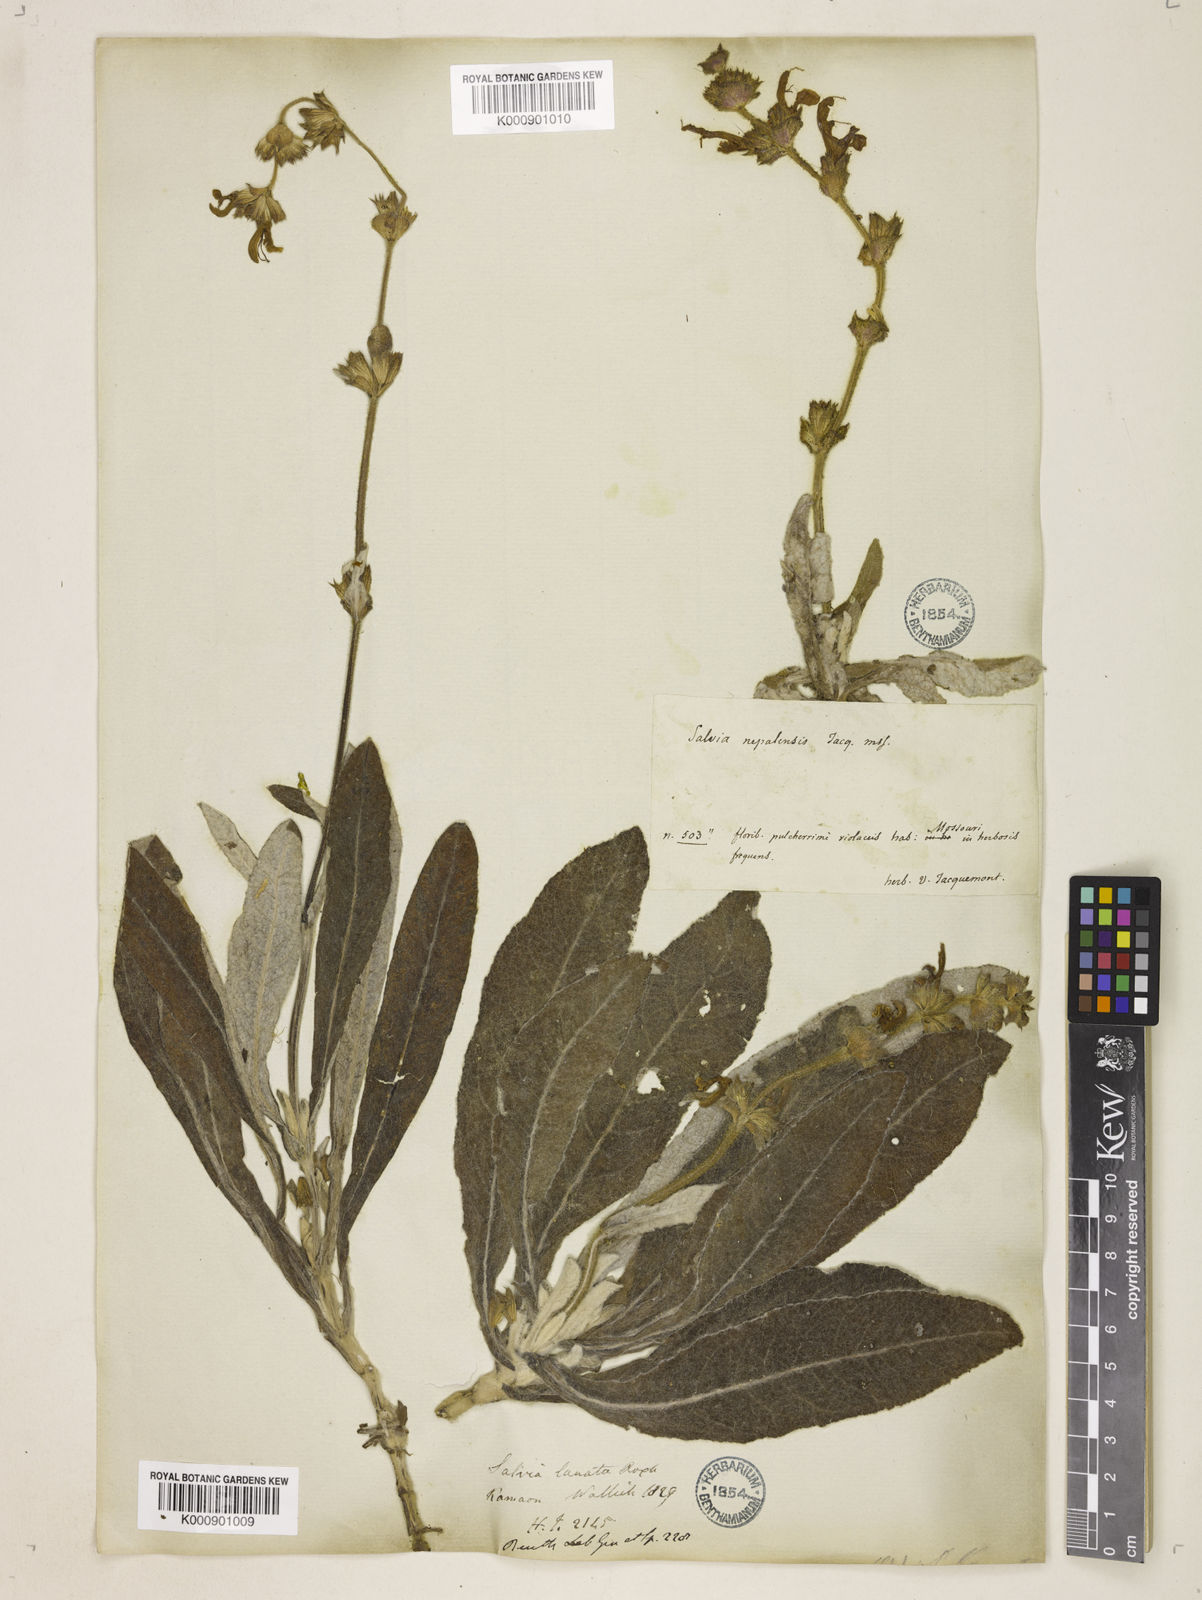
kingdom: Plantae
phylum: Tracheophyta
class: Magnoliopsida
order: Lamiales
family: Lamiaceae
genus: Salvia
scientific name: Salvia
